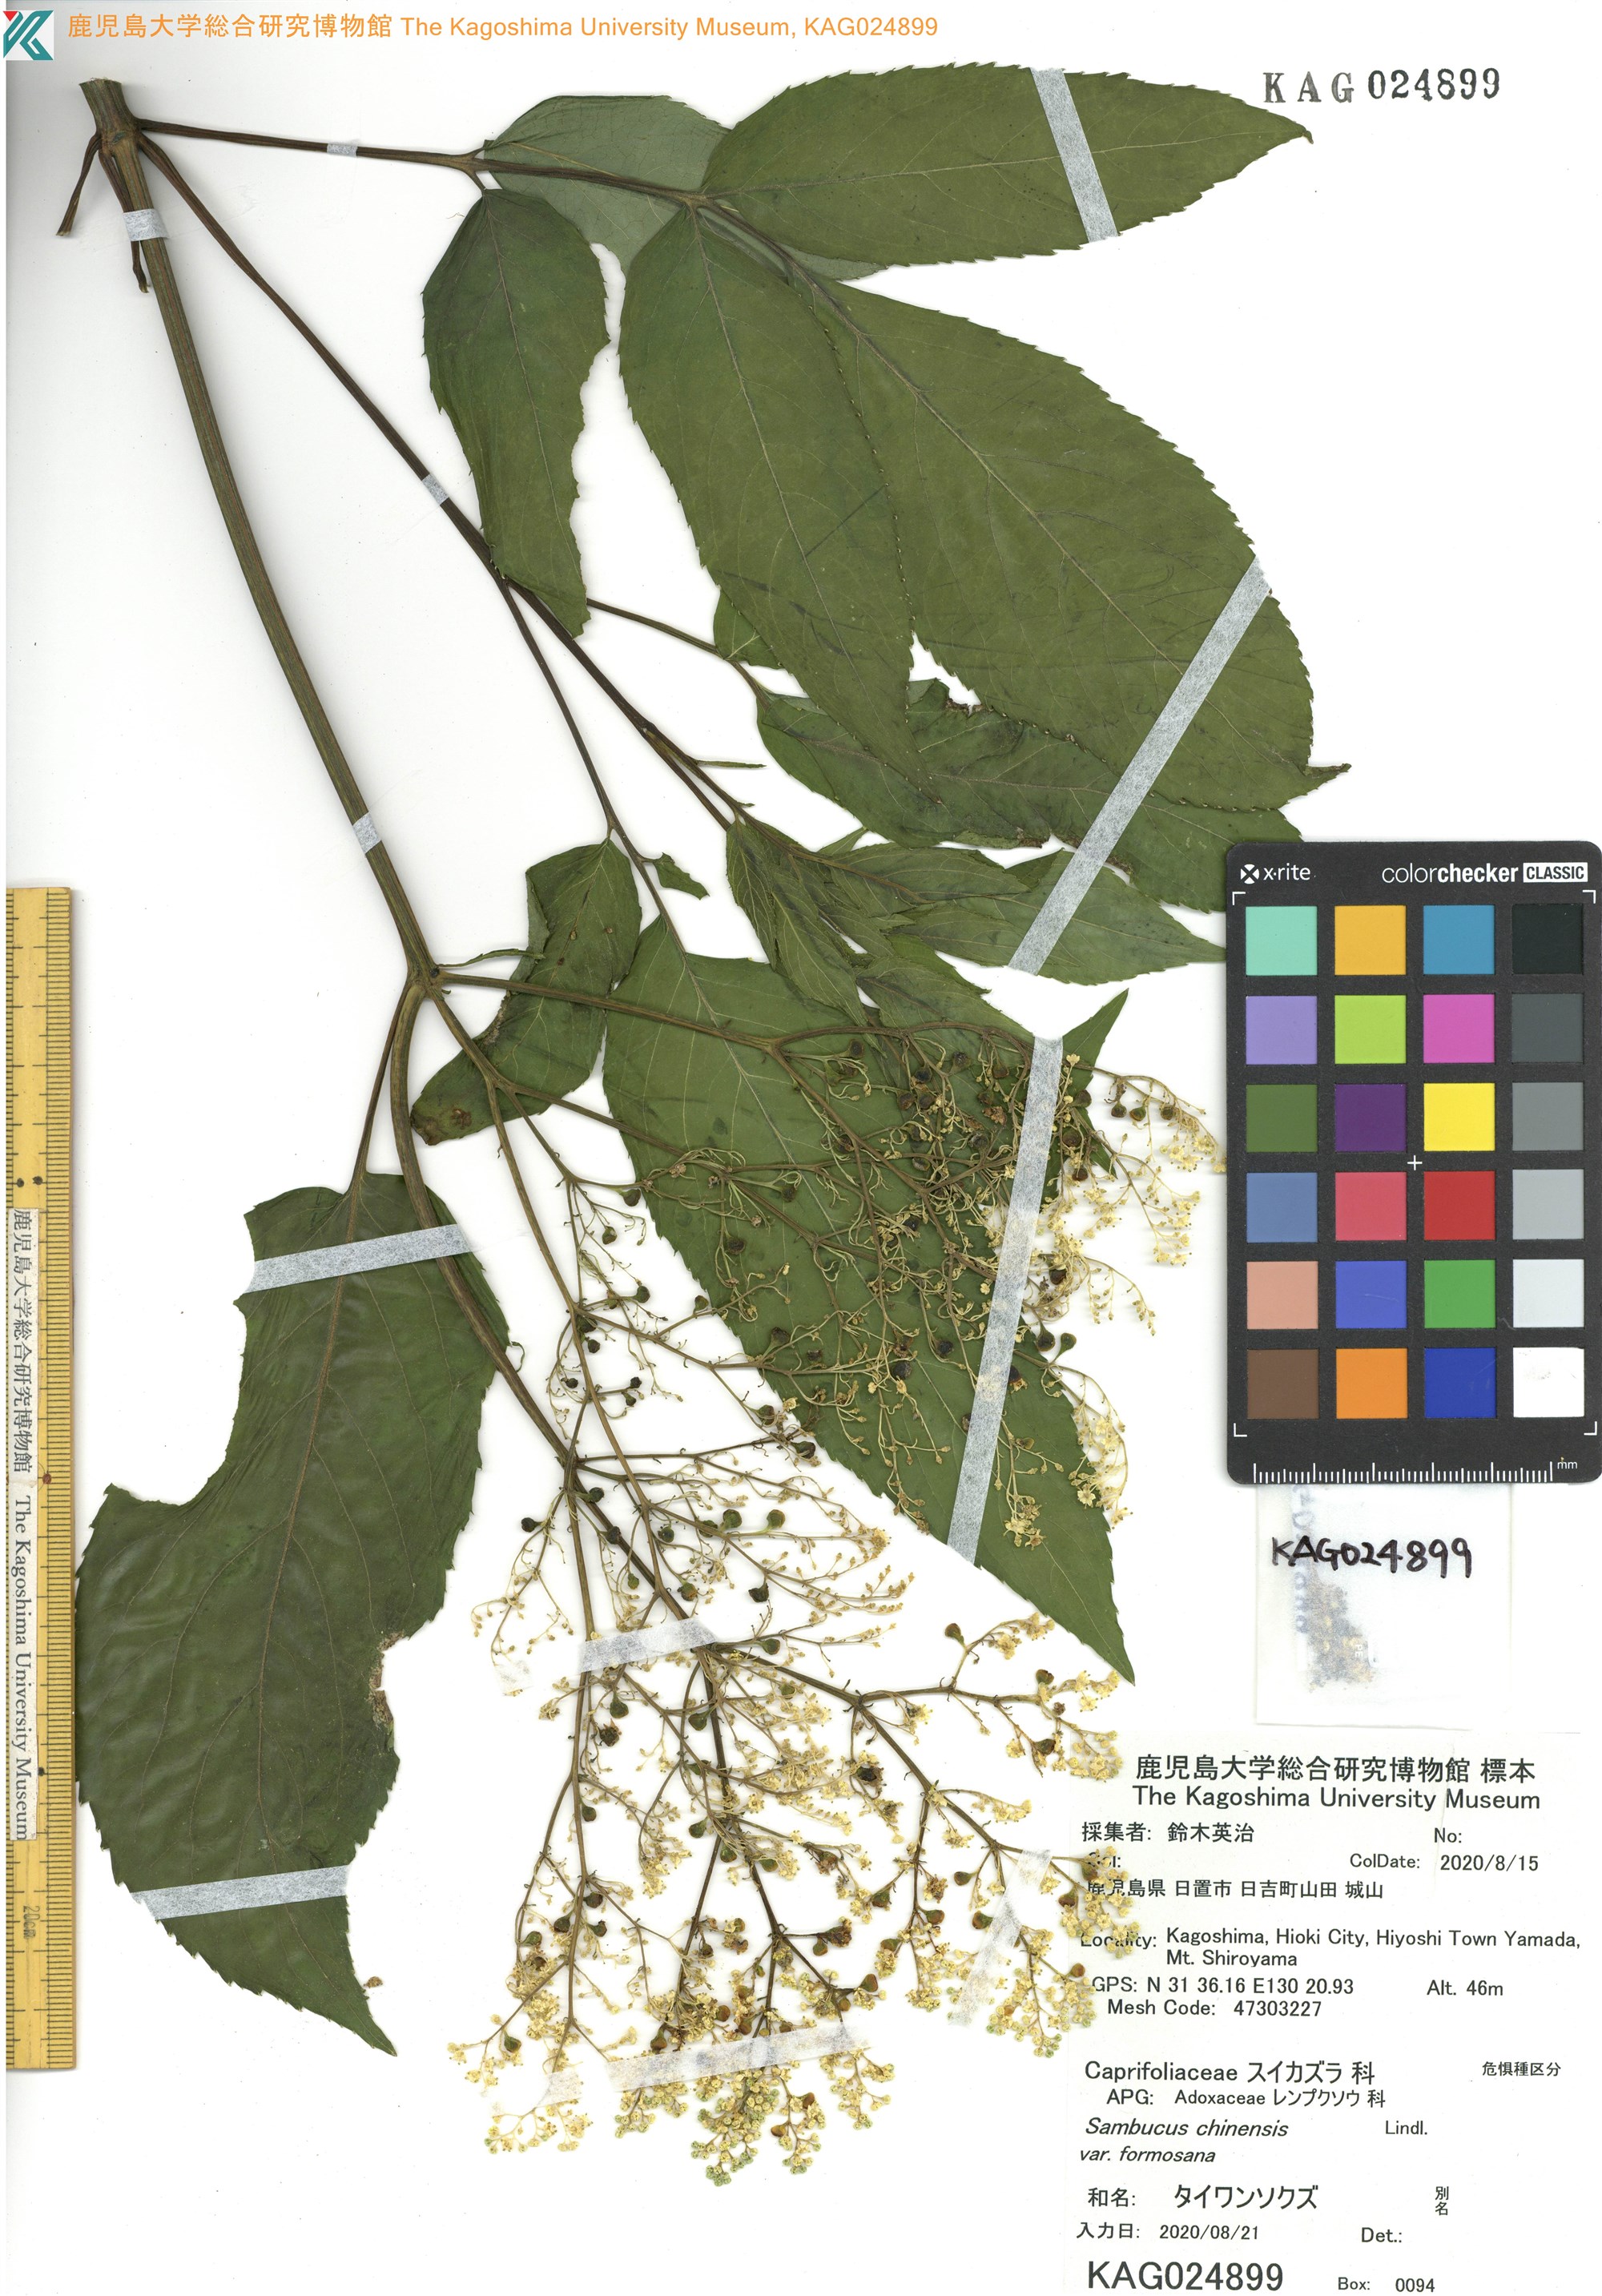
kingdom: Plantae
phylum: Tracheophyta
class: Magnoliopsida
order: Dipsacales
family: Viburnaceae
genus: Sambucus
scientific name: Sambucus javanica
